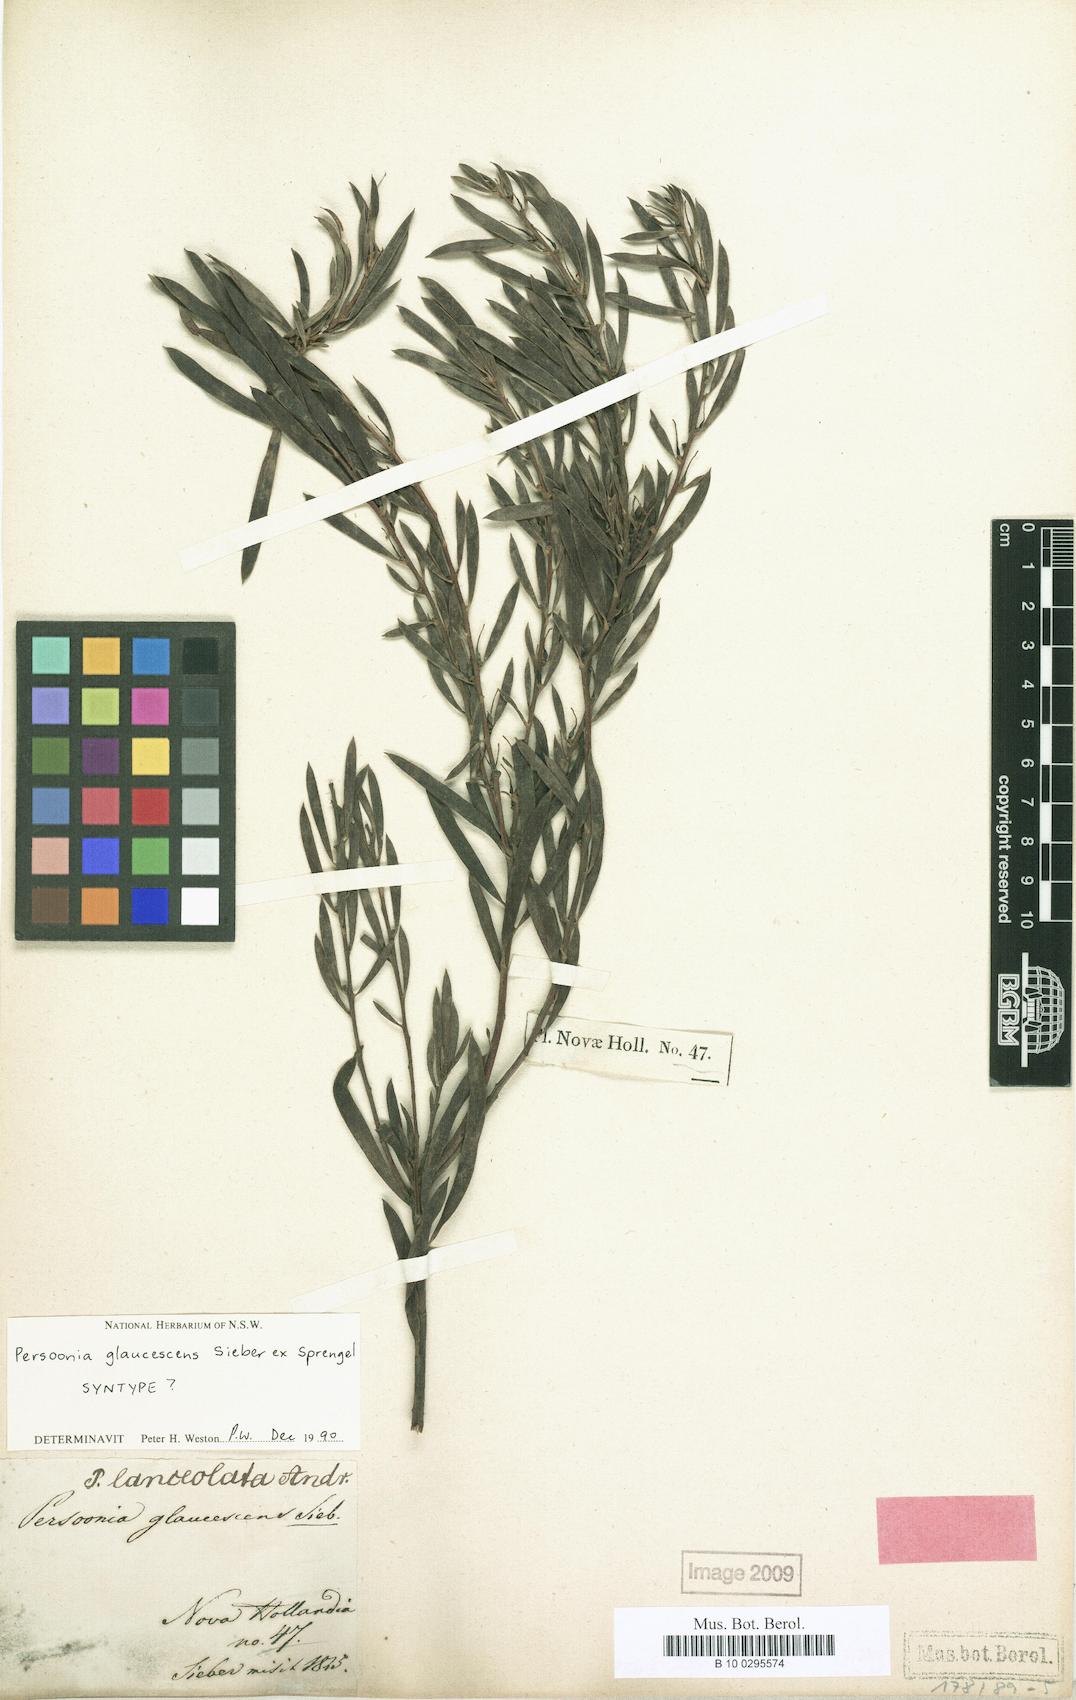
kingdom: Plantae
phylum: Tracheophyta
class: Magnoliopsida
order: Proteales
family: Proteaceae
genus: Persoonia
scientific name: Persoonia glaucescens
